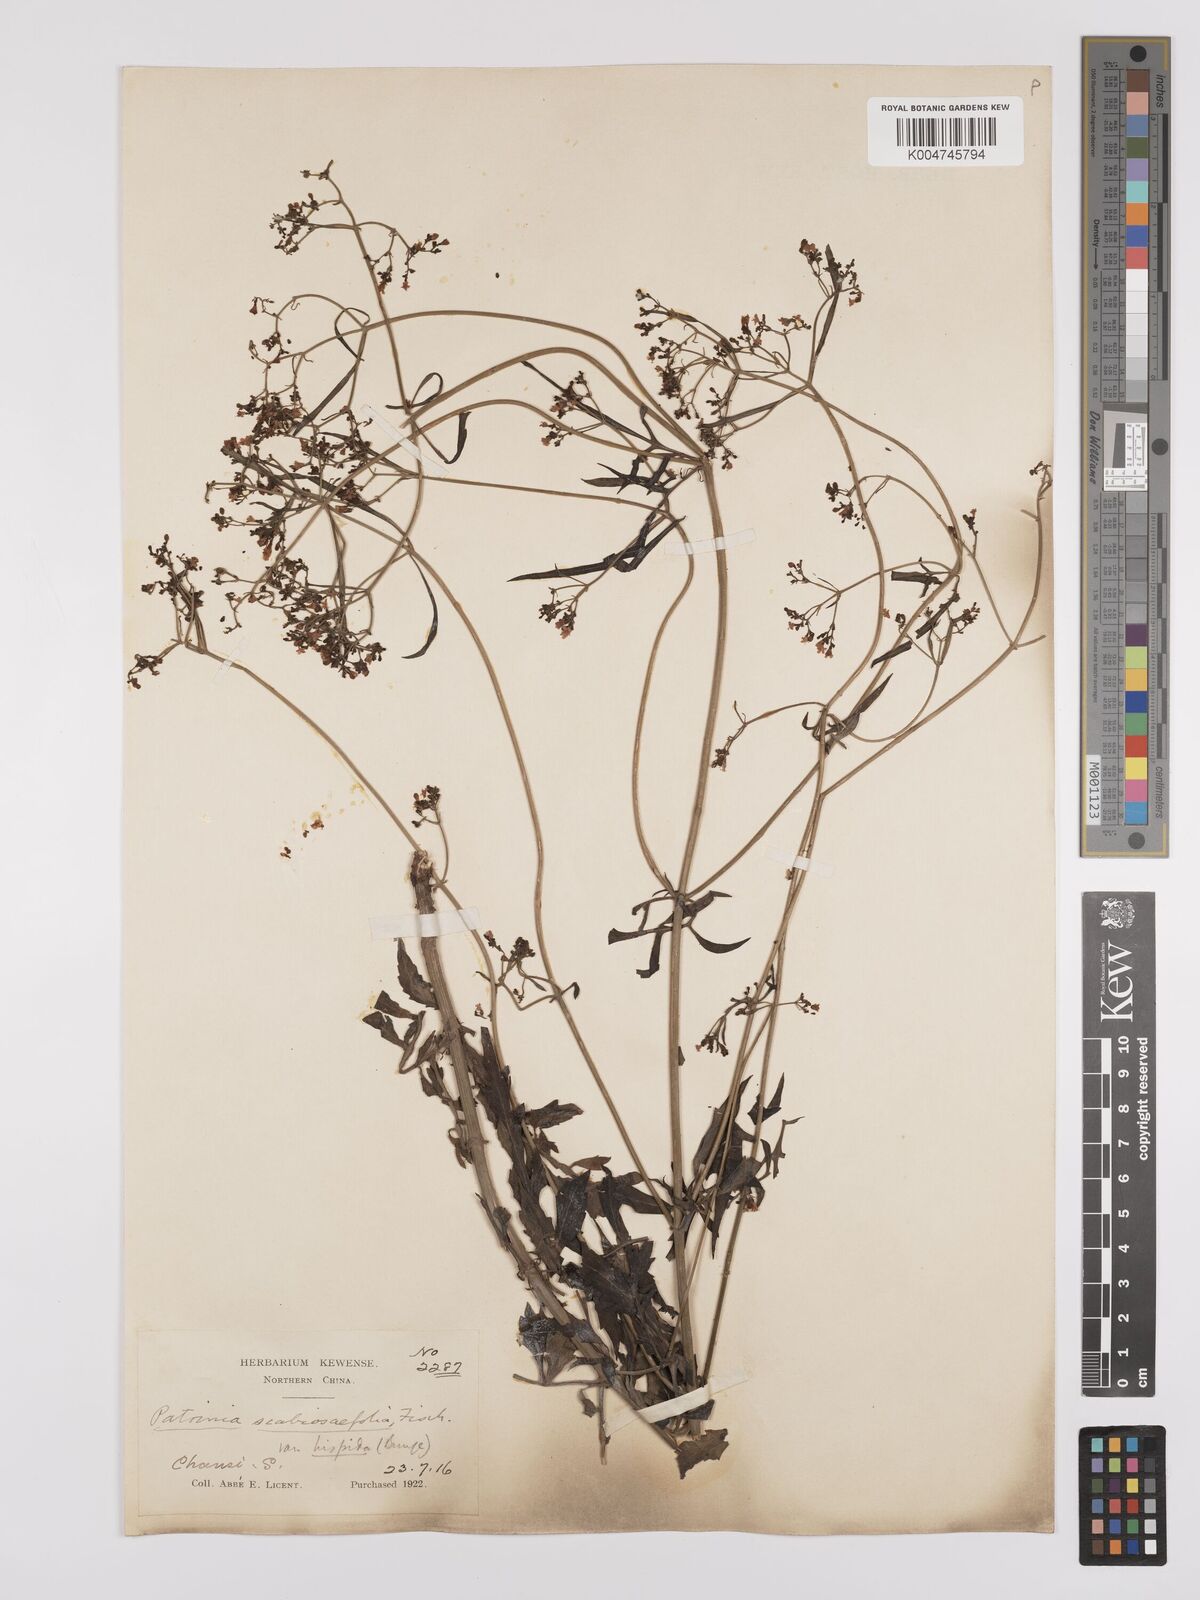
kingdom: Plantae
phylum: Tracheophyta
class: Magnoliopsida
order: Dipsacales
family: Caprifoliaceae
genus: Patrinia
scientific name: Patrinia scabiosifolia
